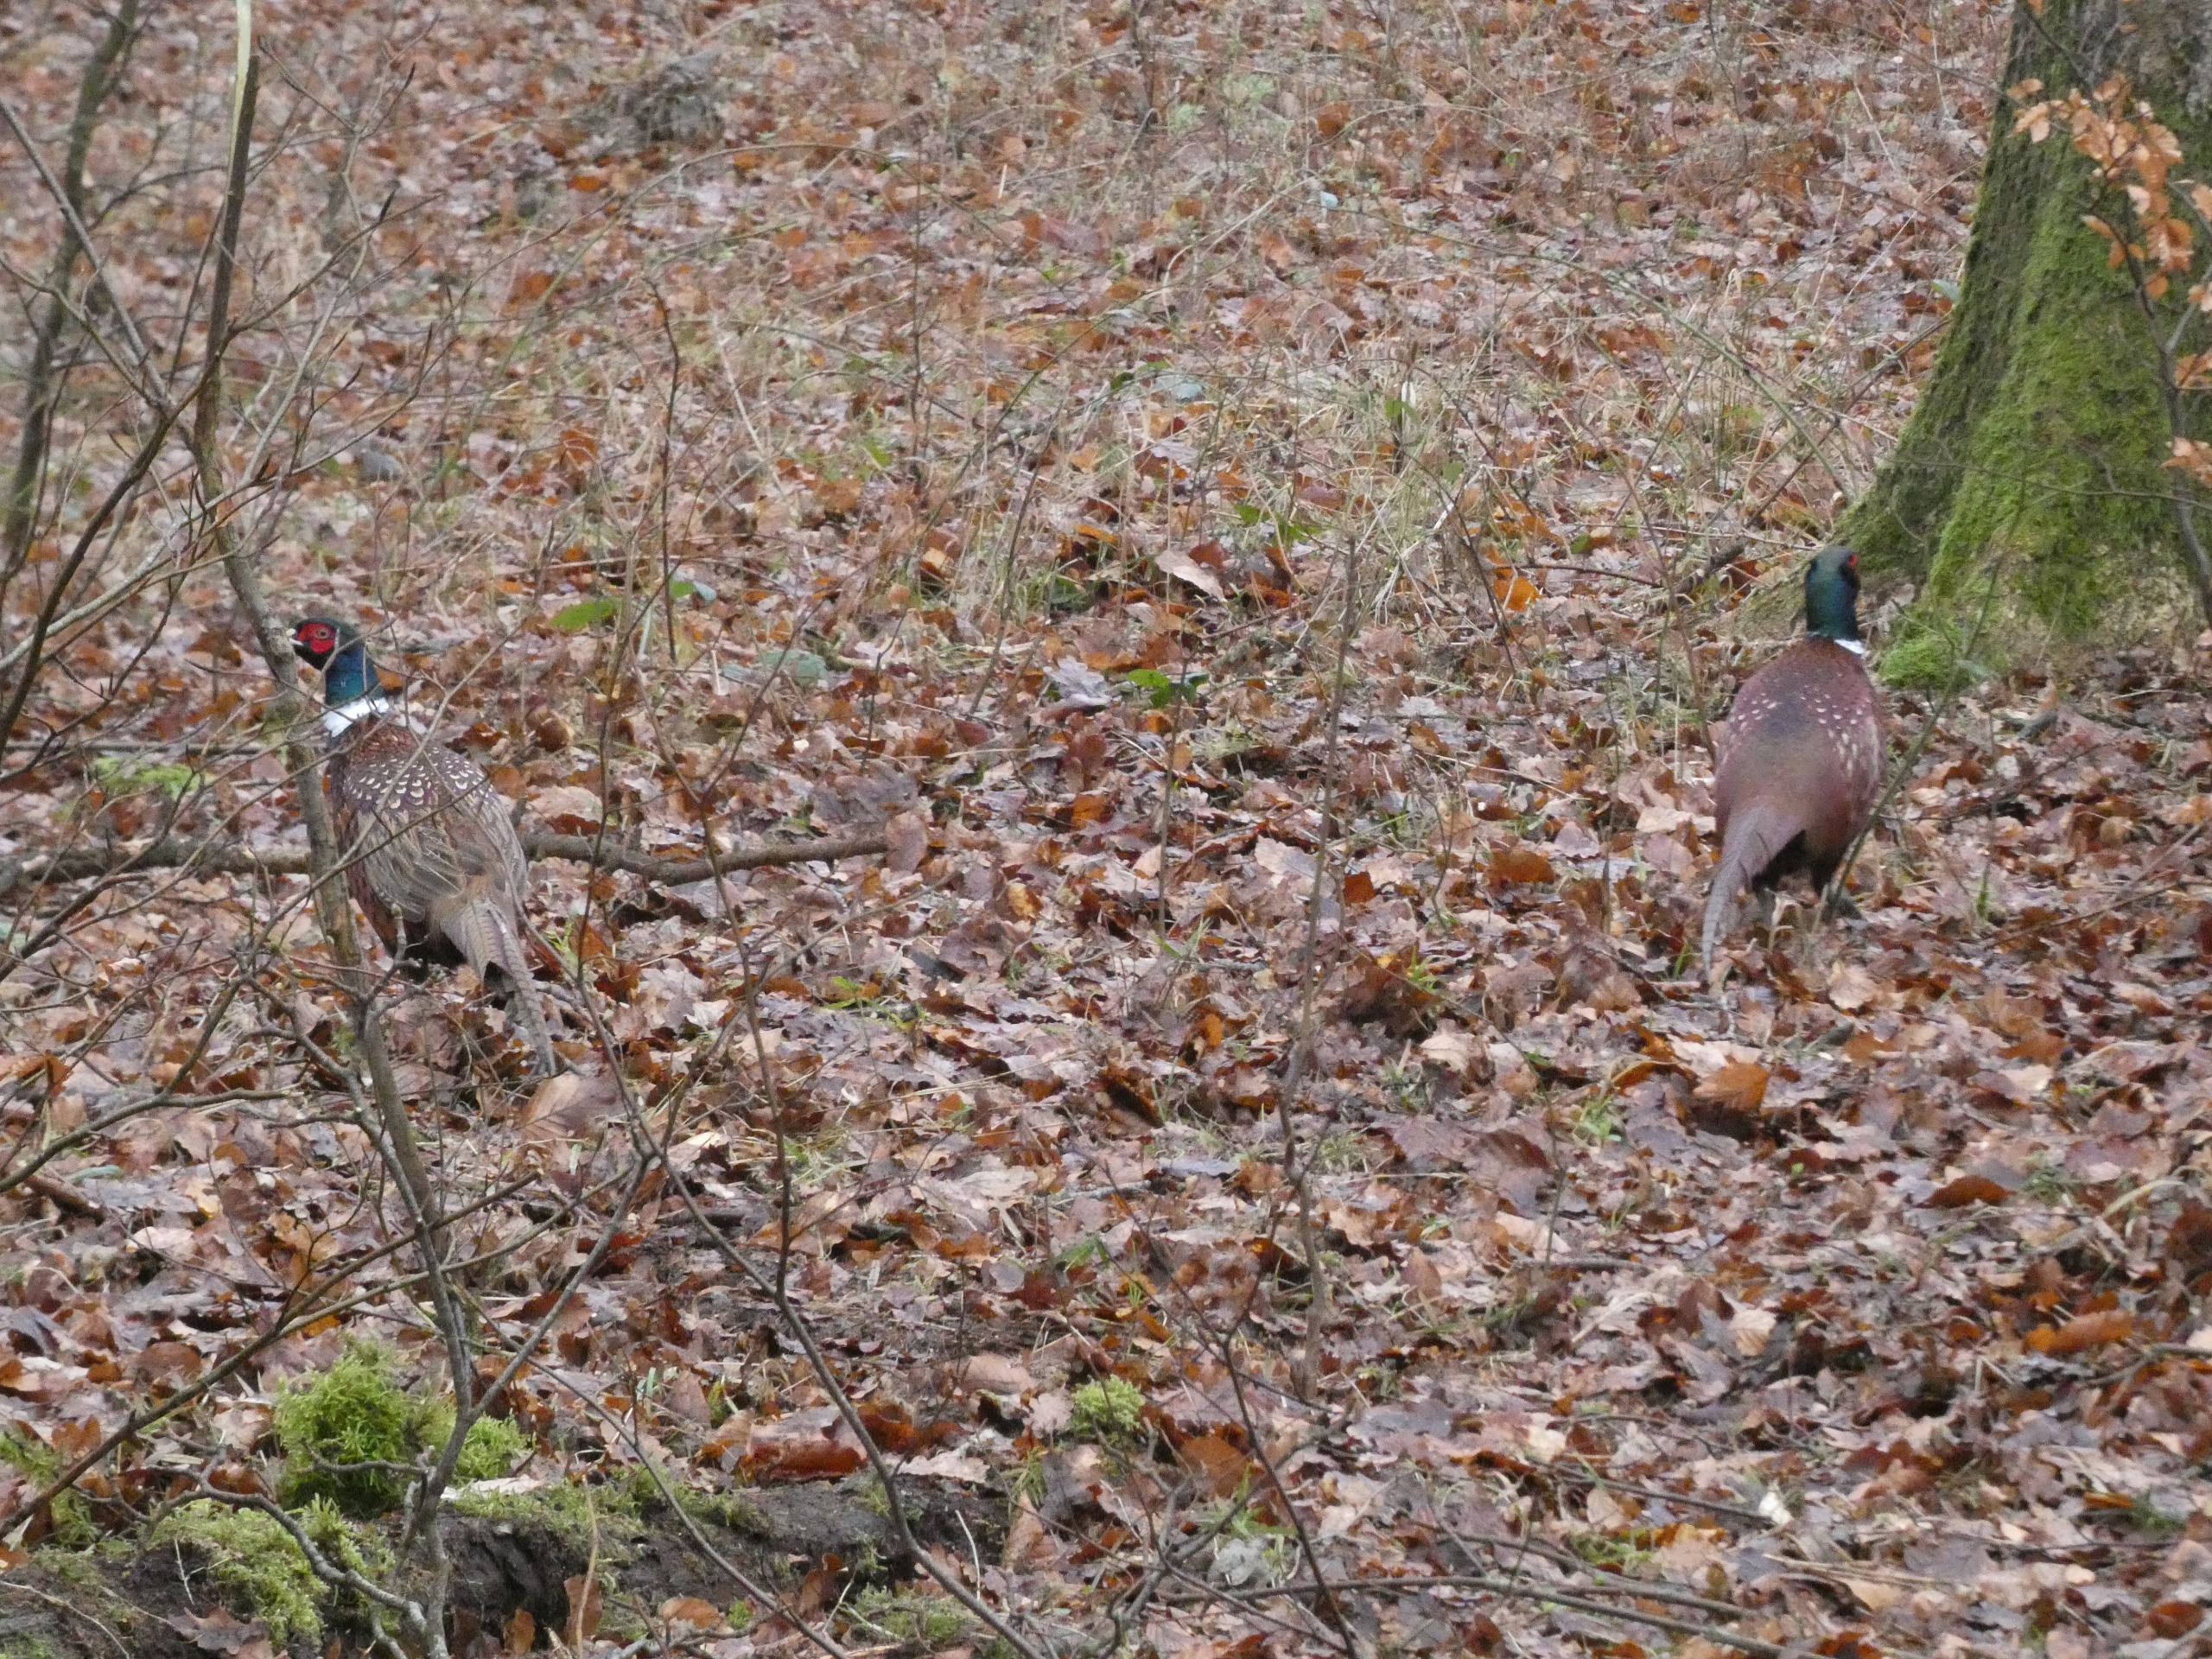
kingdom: Animalia
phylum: Chordata
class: Aves
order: Galliformes
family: Phasianidae
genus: Phasianus
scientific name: Phasianus colchicus
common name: Fasan
